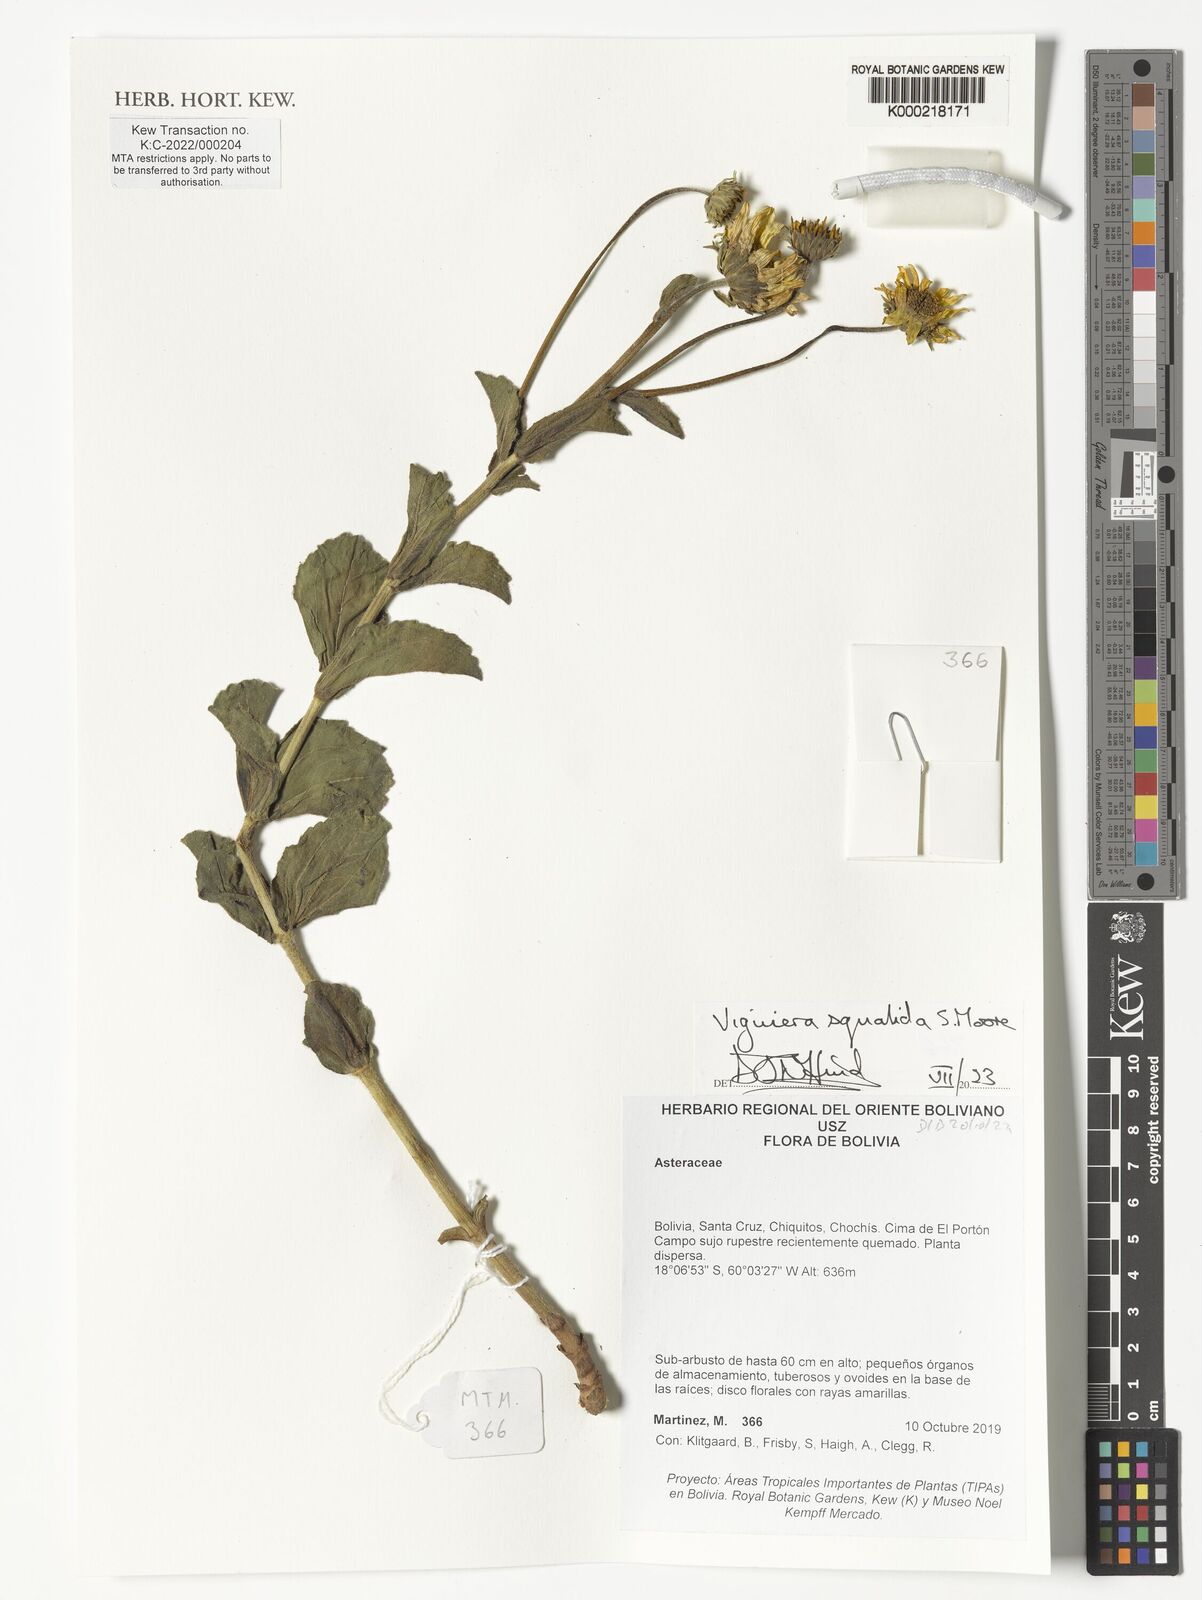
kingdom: Plantae
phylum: Tracheophyta
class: Magnoliopsida
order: Asterales
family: Asteraceae
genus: Aldama
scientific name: Aldama squalida
